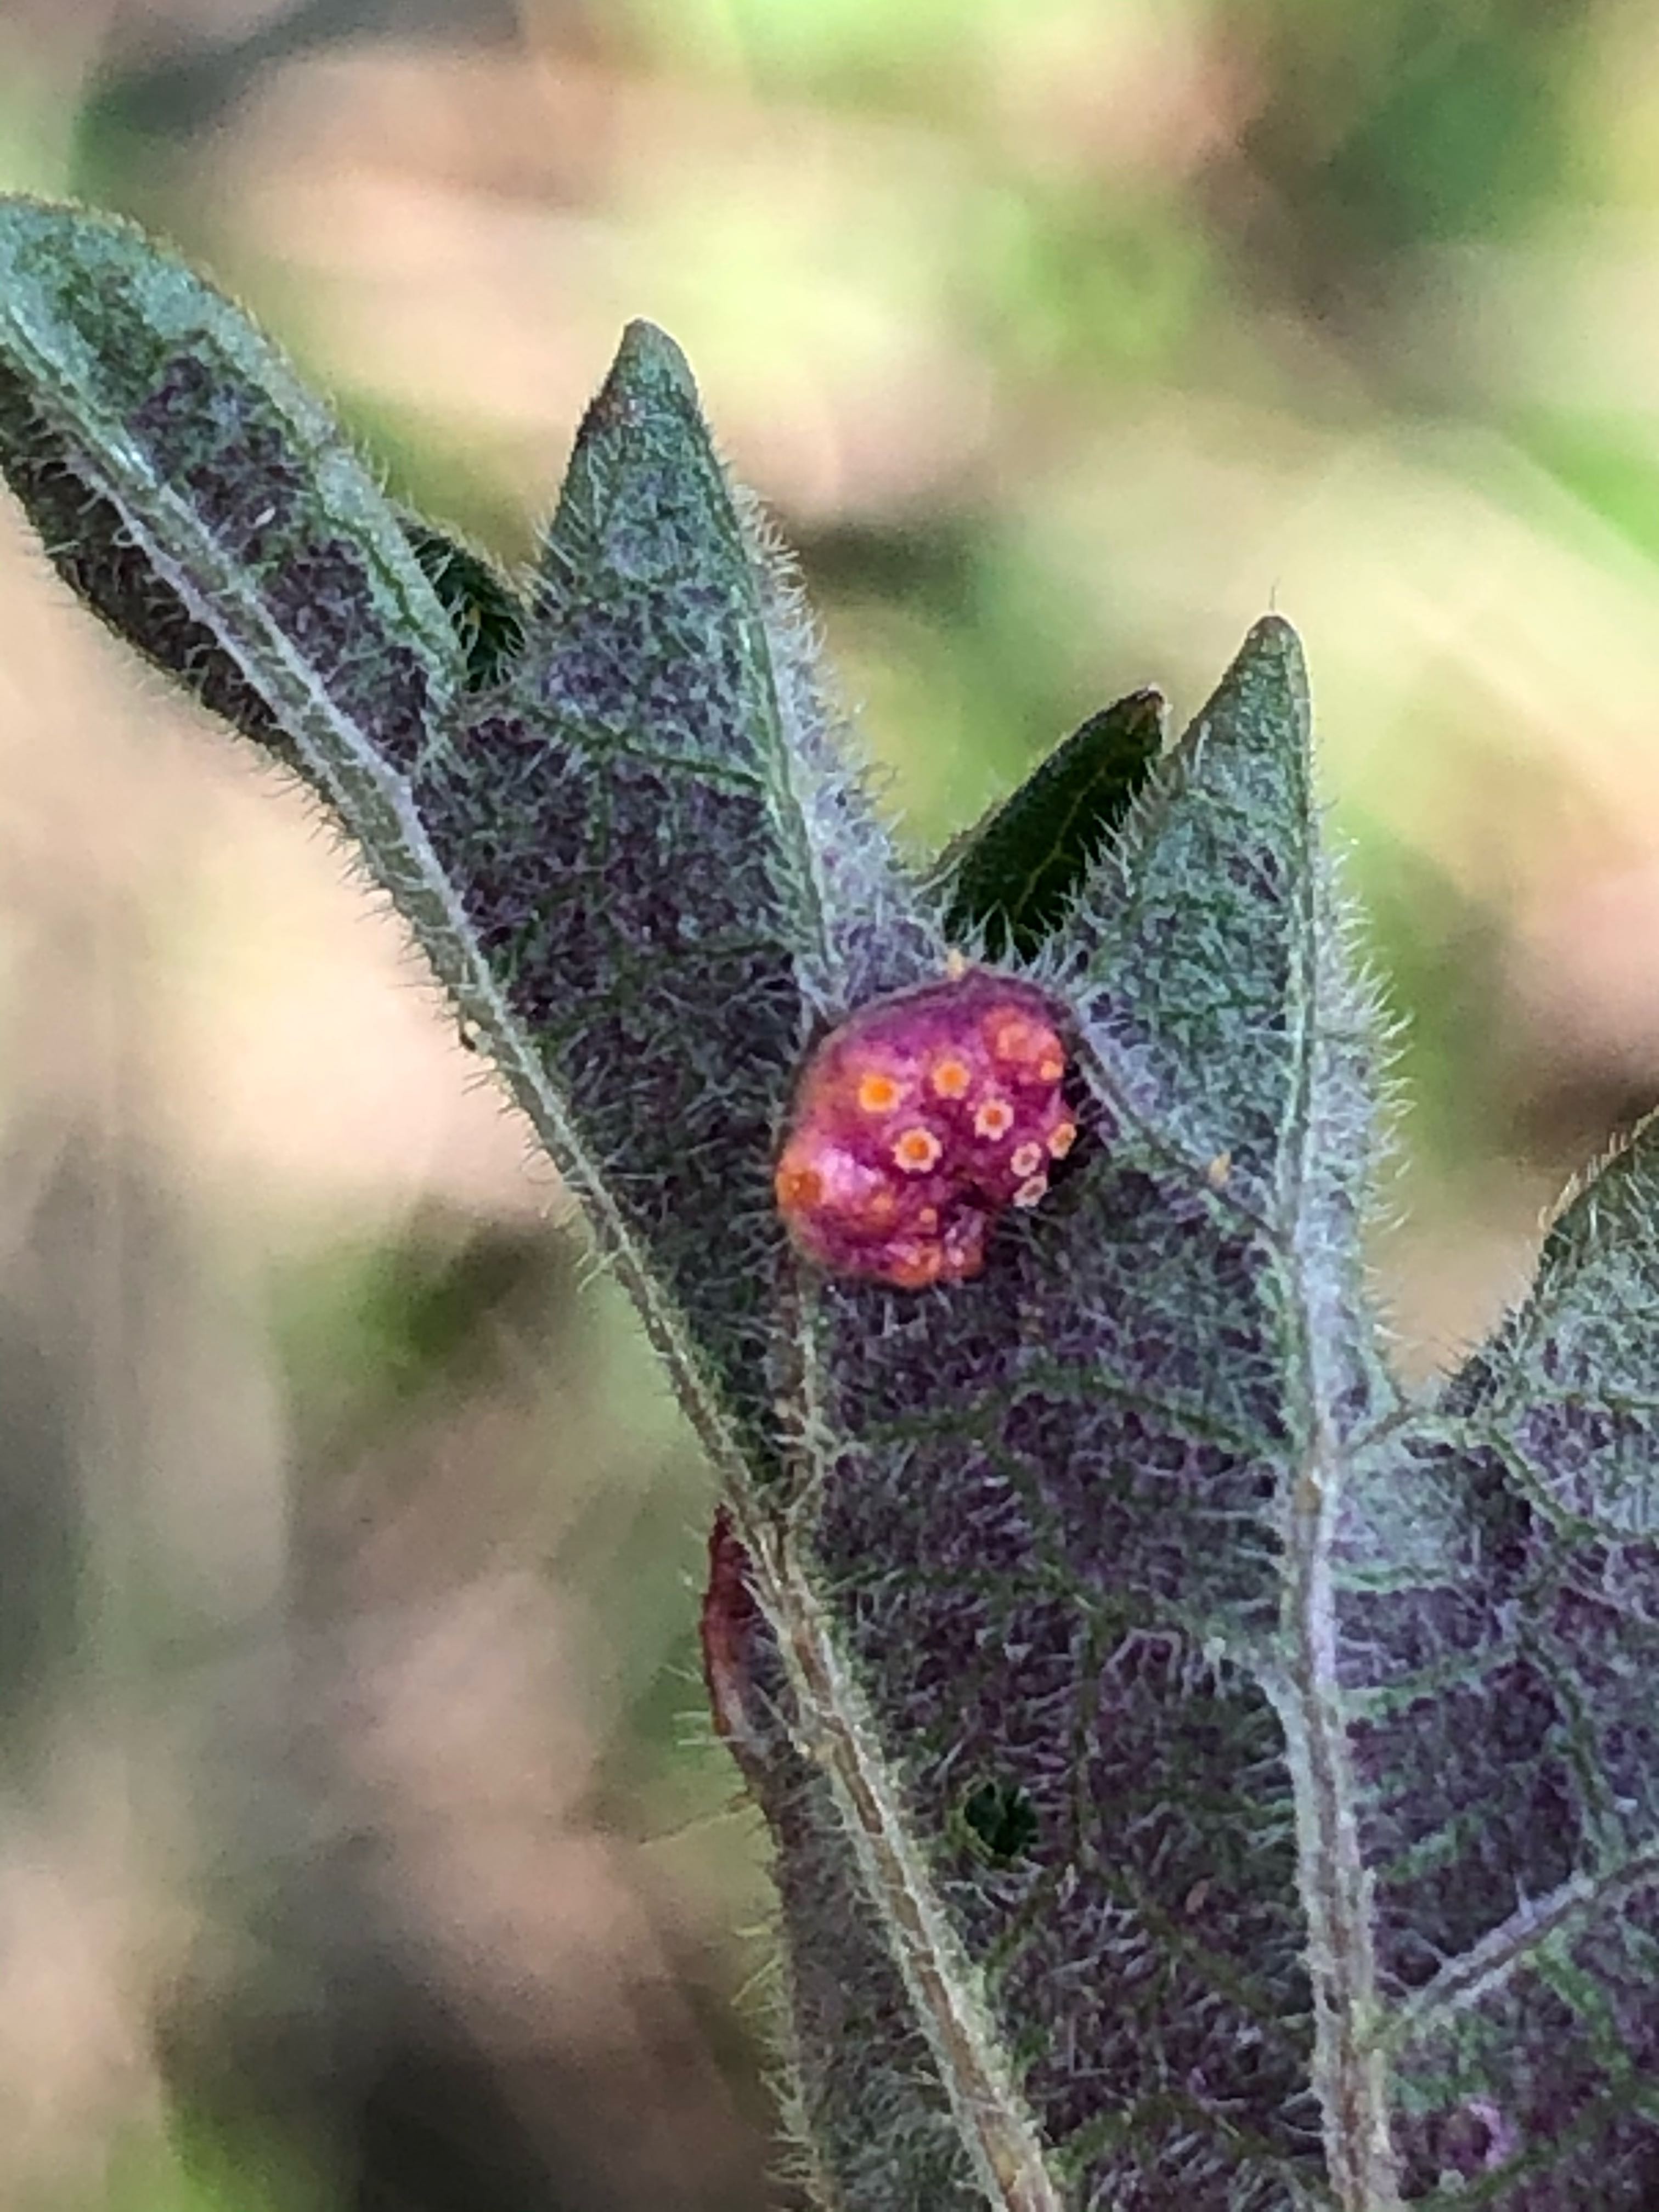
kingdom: Fungi
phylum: Basidiomycota
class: Pucciniomycetes
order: Pucciniales
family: Pucciniaceae
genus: Puccinia
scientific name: Puccinia urticata
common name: nældegalle-tvecellerust
